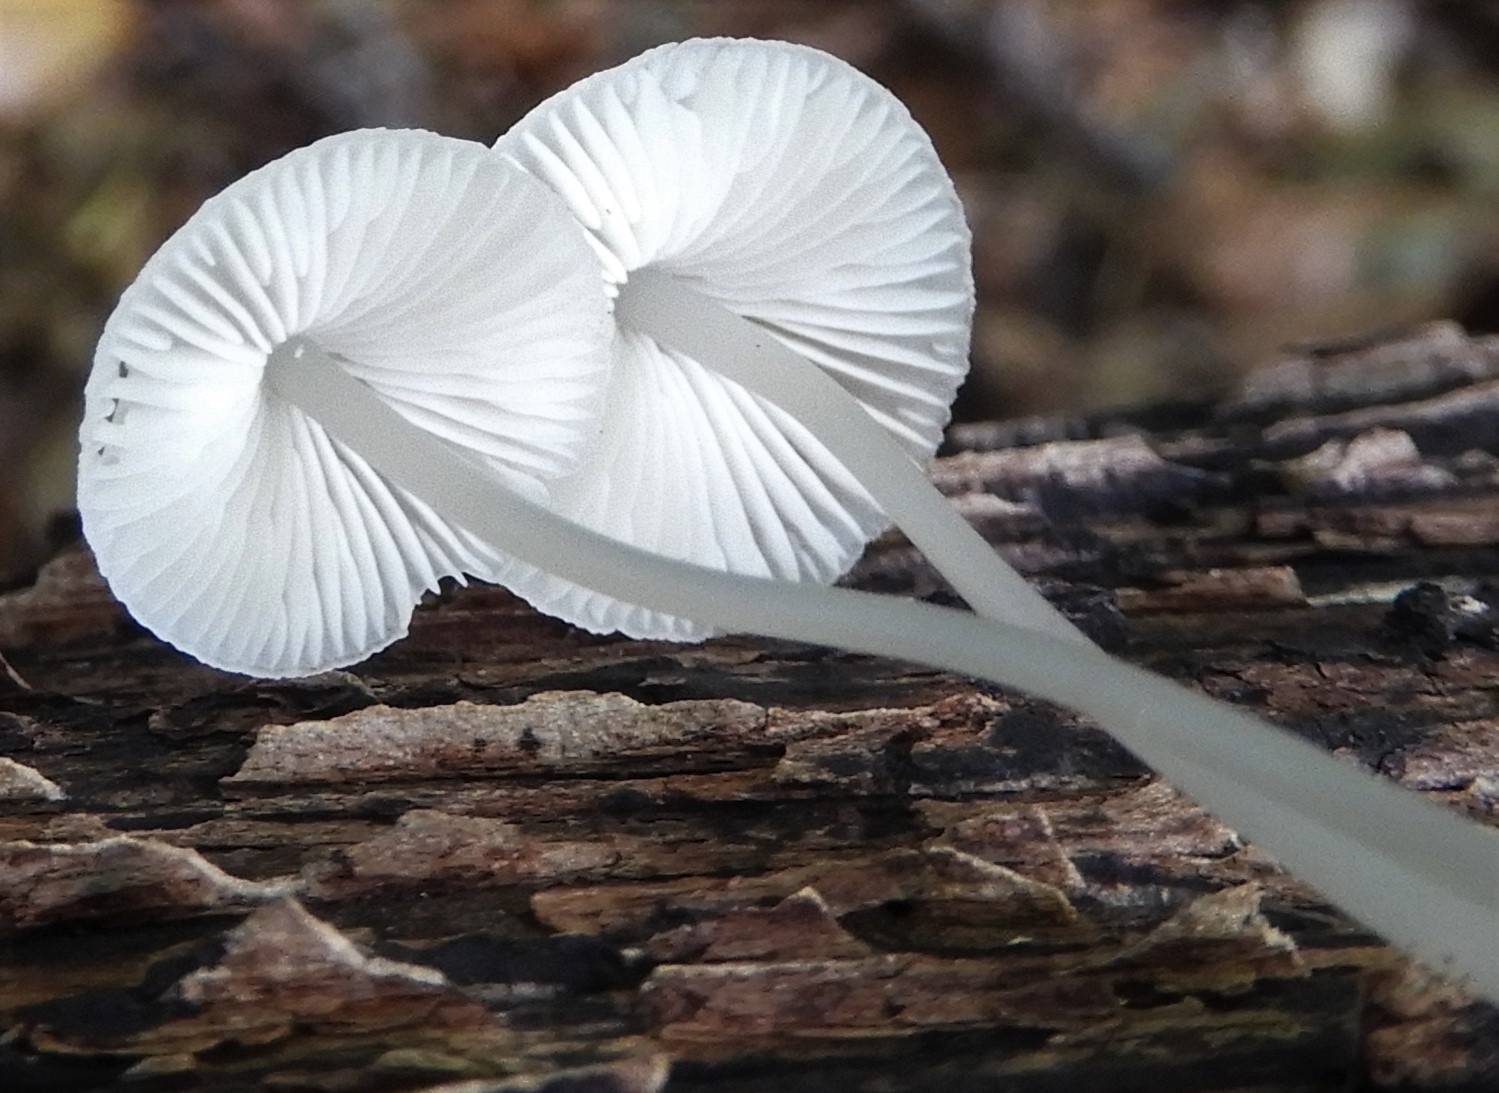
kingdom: Fungi
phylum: Basidiomycota
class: Agaricomycetes
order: Agaricales
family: Mycenaceae
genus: Mycena
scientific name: Mycena
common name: huesvamp
